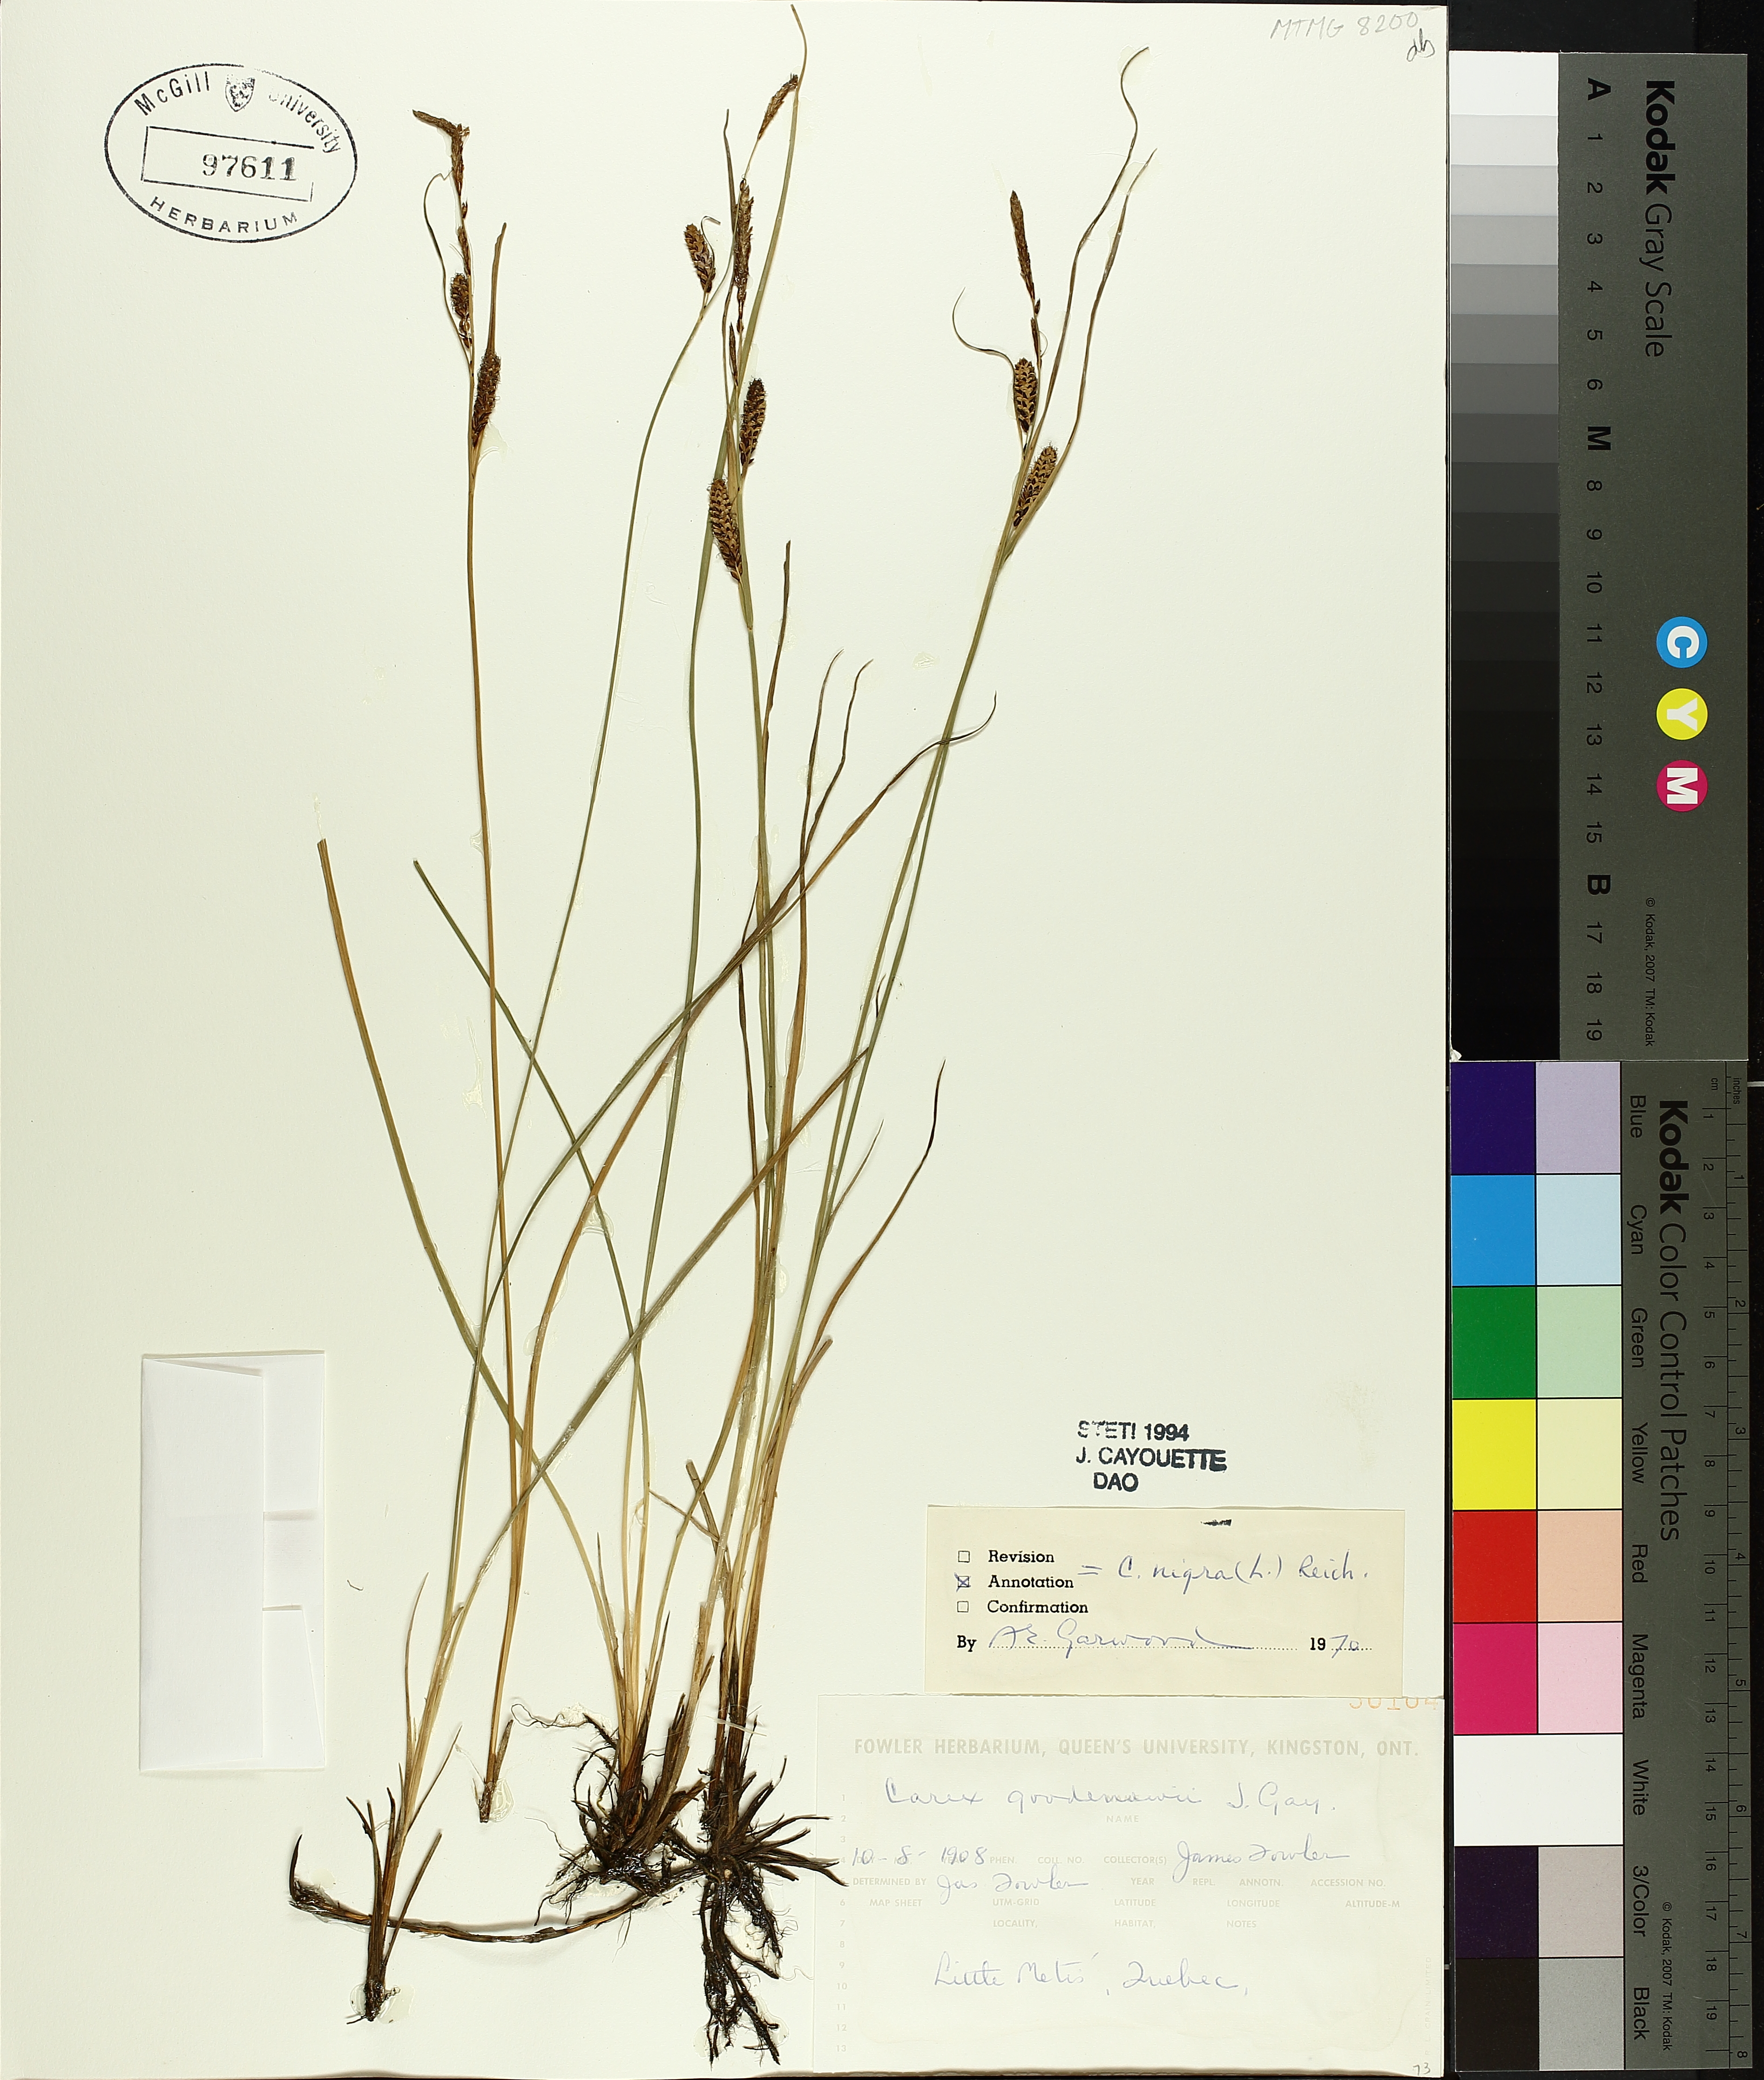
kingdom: Plantae
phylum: Tracheophyta
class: Liliopsida
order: Poales
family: Cyperaceae
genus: Carex
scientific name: Carex nigra
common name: Common sedge
